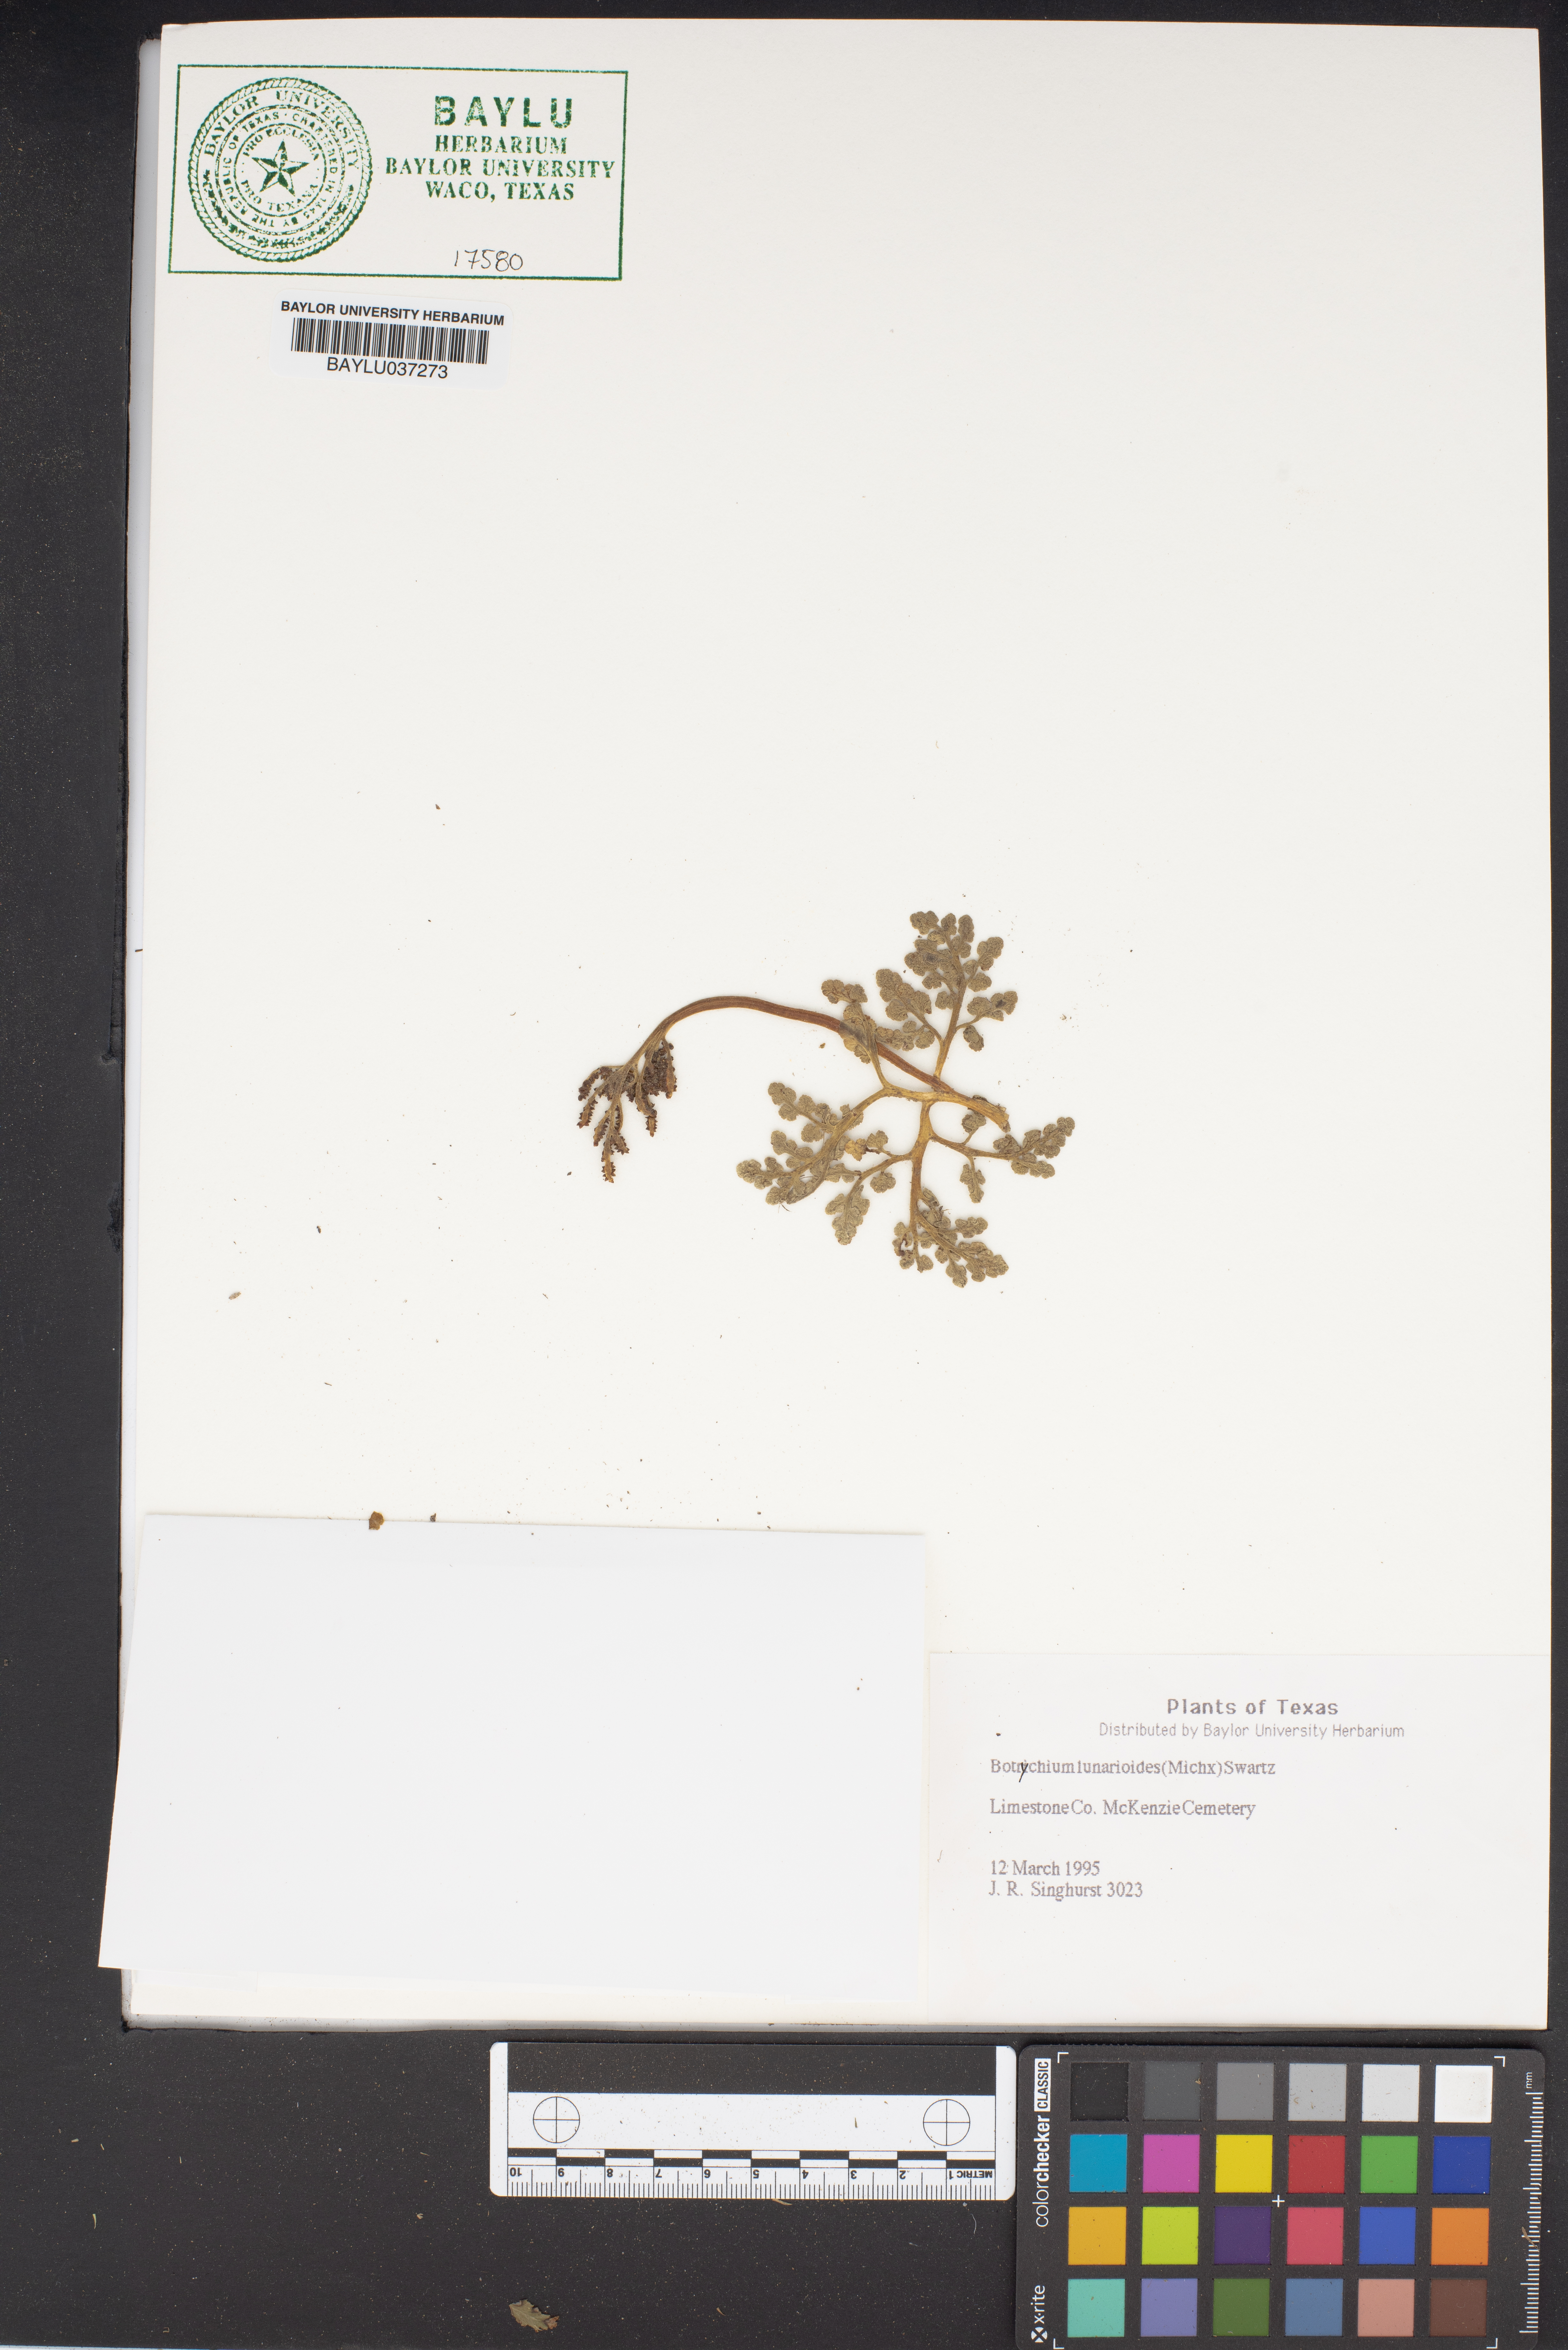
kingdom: Plantae
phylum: Tracheophyta
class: Polypodiopsida
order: Ophioglossales
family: Ophioglossaceae
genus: Sceptridium
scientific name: Sceptridium lunarioides
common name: Prostrate grapefern
